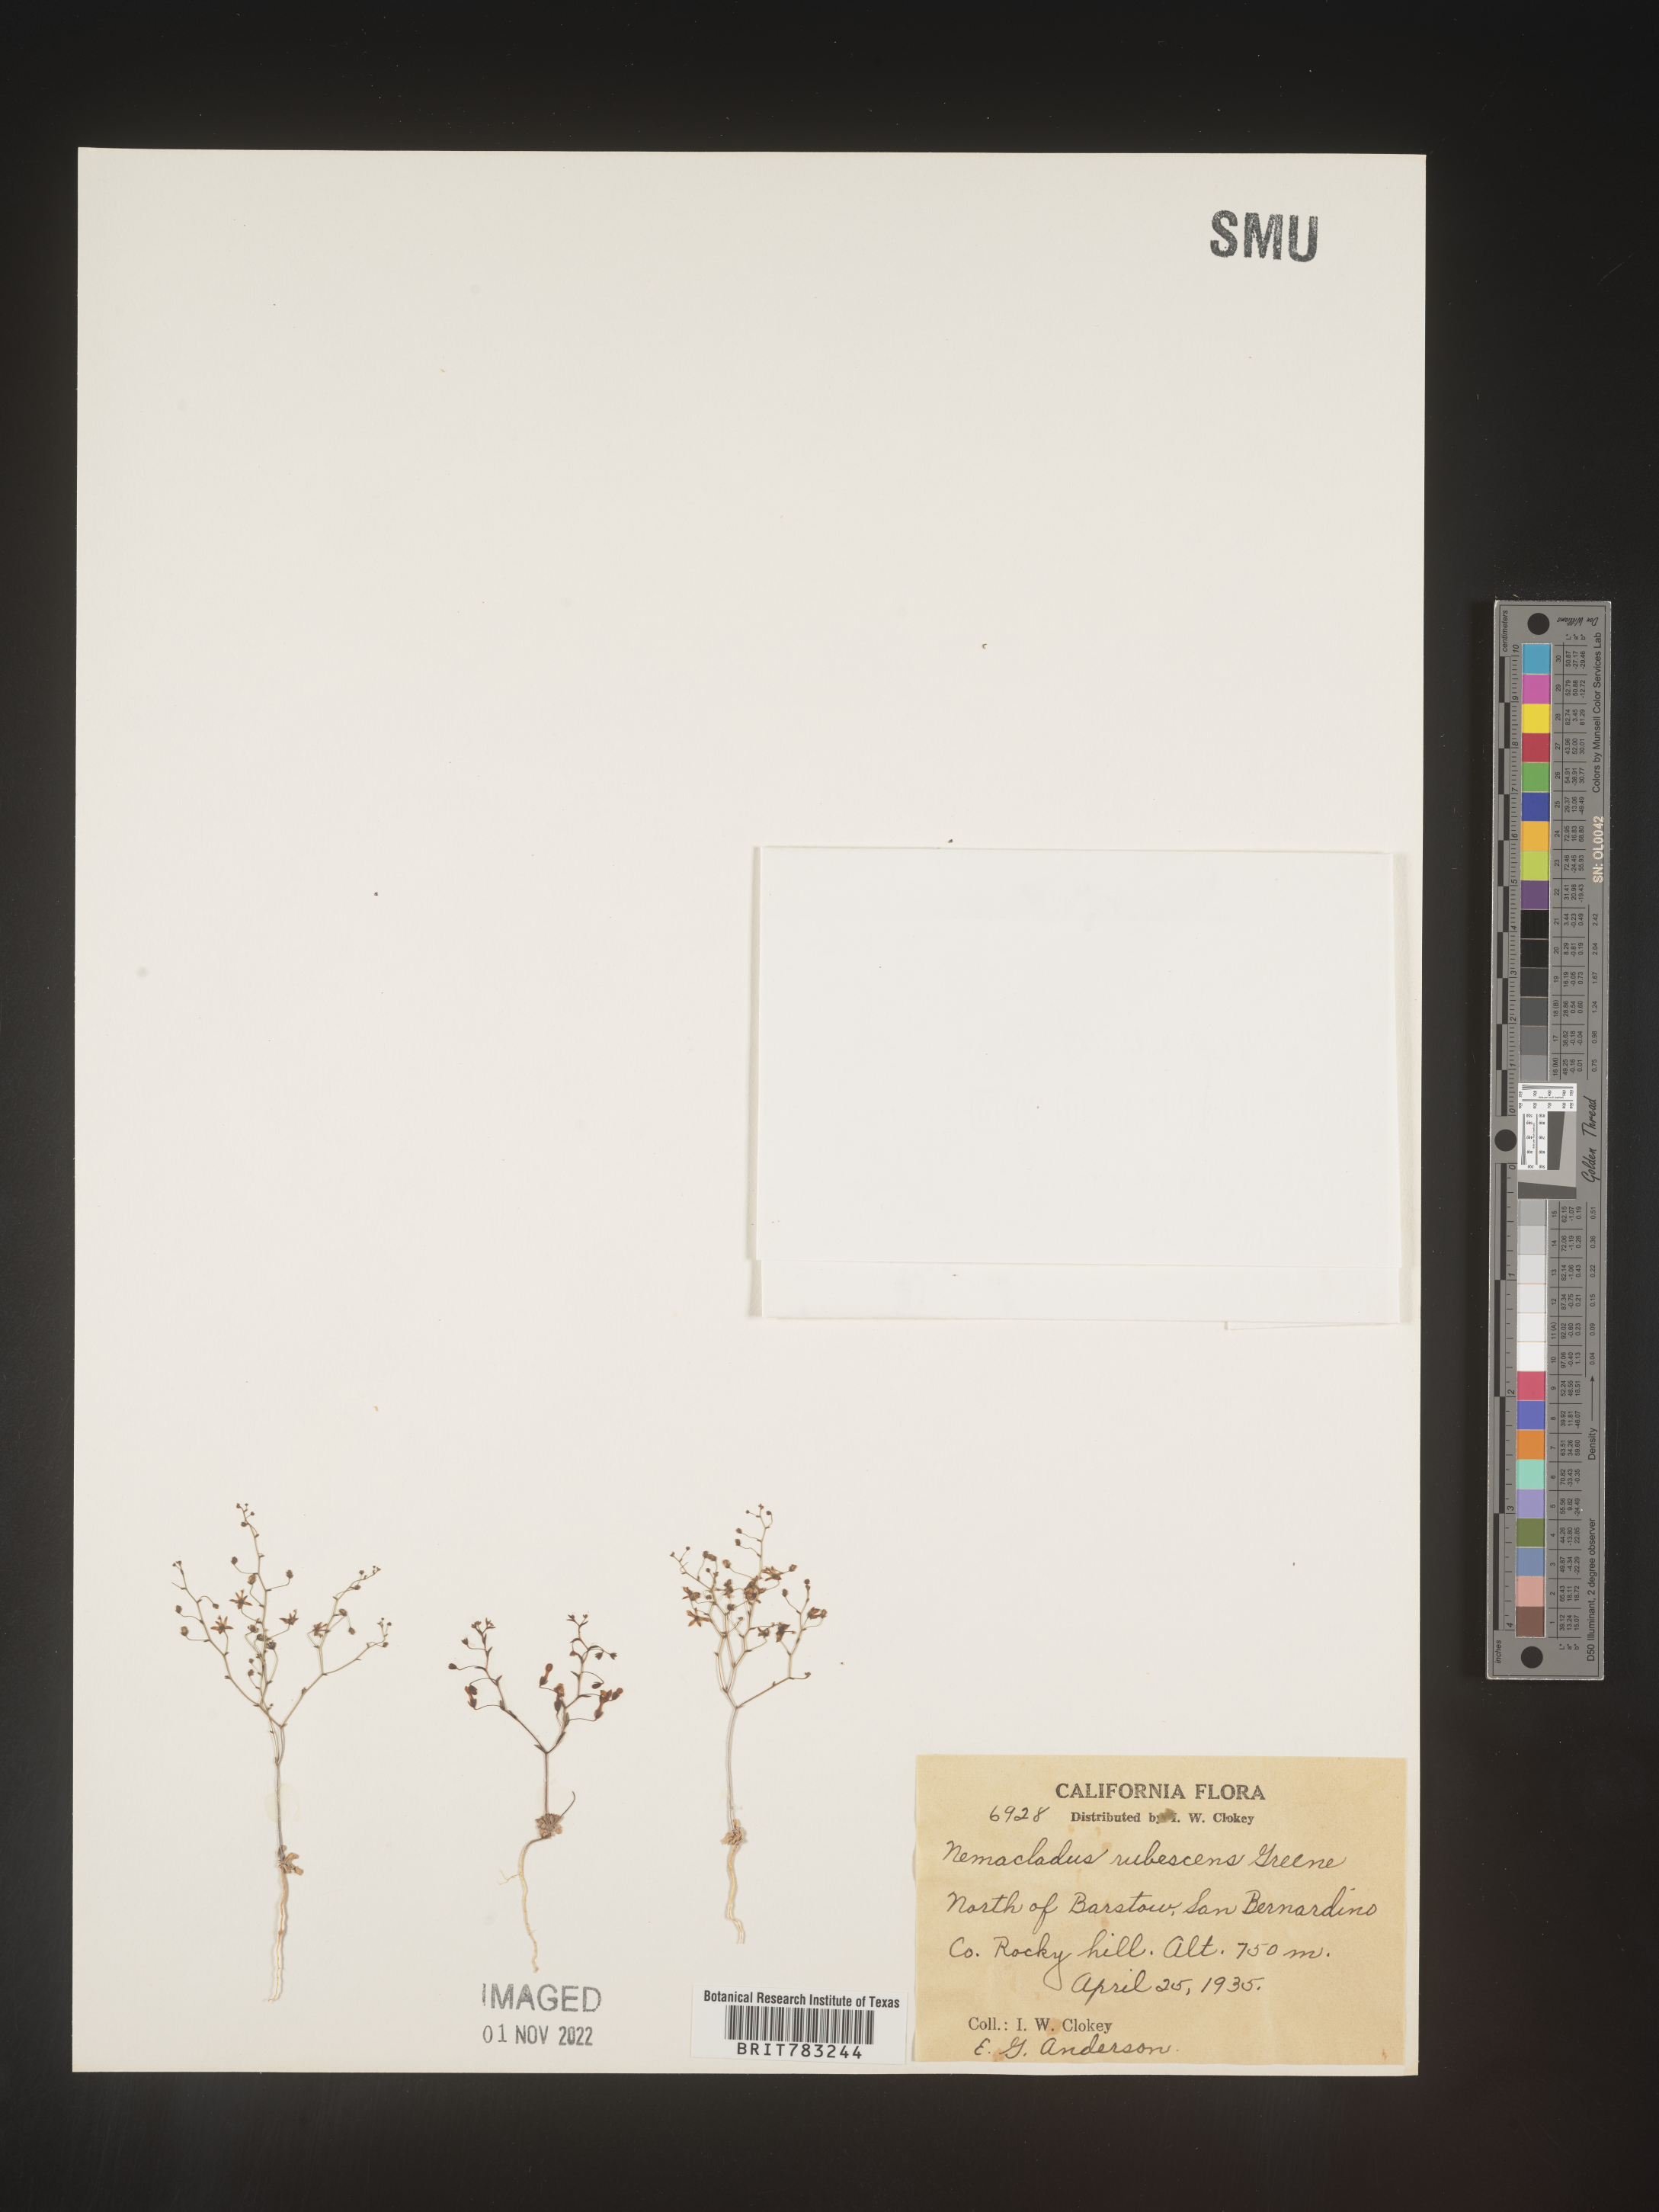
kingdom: Plantae
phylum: Tracheophyta
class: Magnoliopsida
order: Asterales
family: Campanulaceae
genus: Nemacladus
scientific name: Nemacladus
